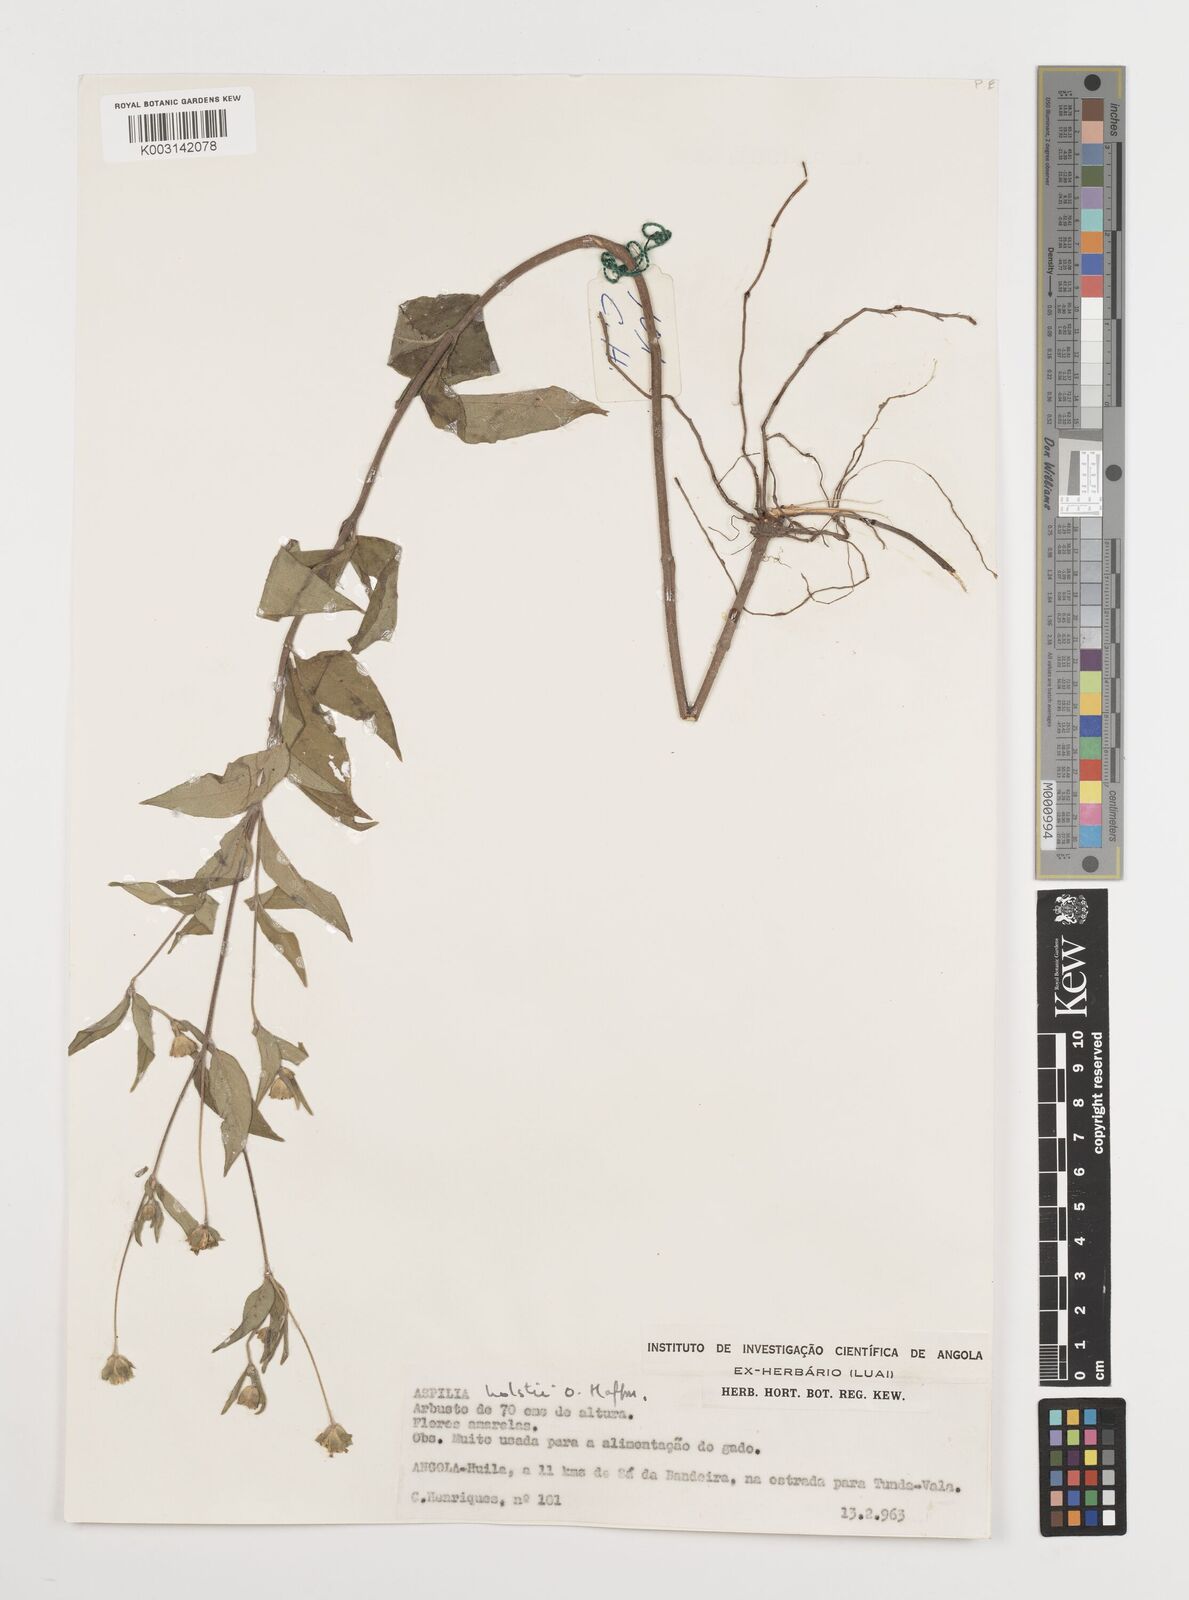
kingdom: Plantae
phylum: Tracheophyta
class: Magnoliopsida
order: Asterales
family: Asteraceae
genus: Aspilia
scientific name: Aspilia angolensis
